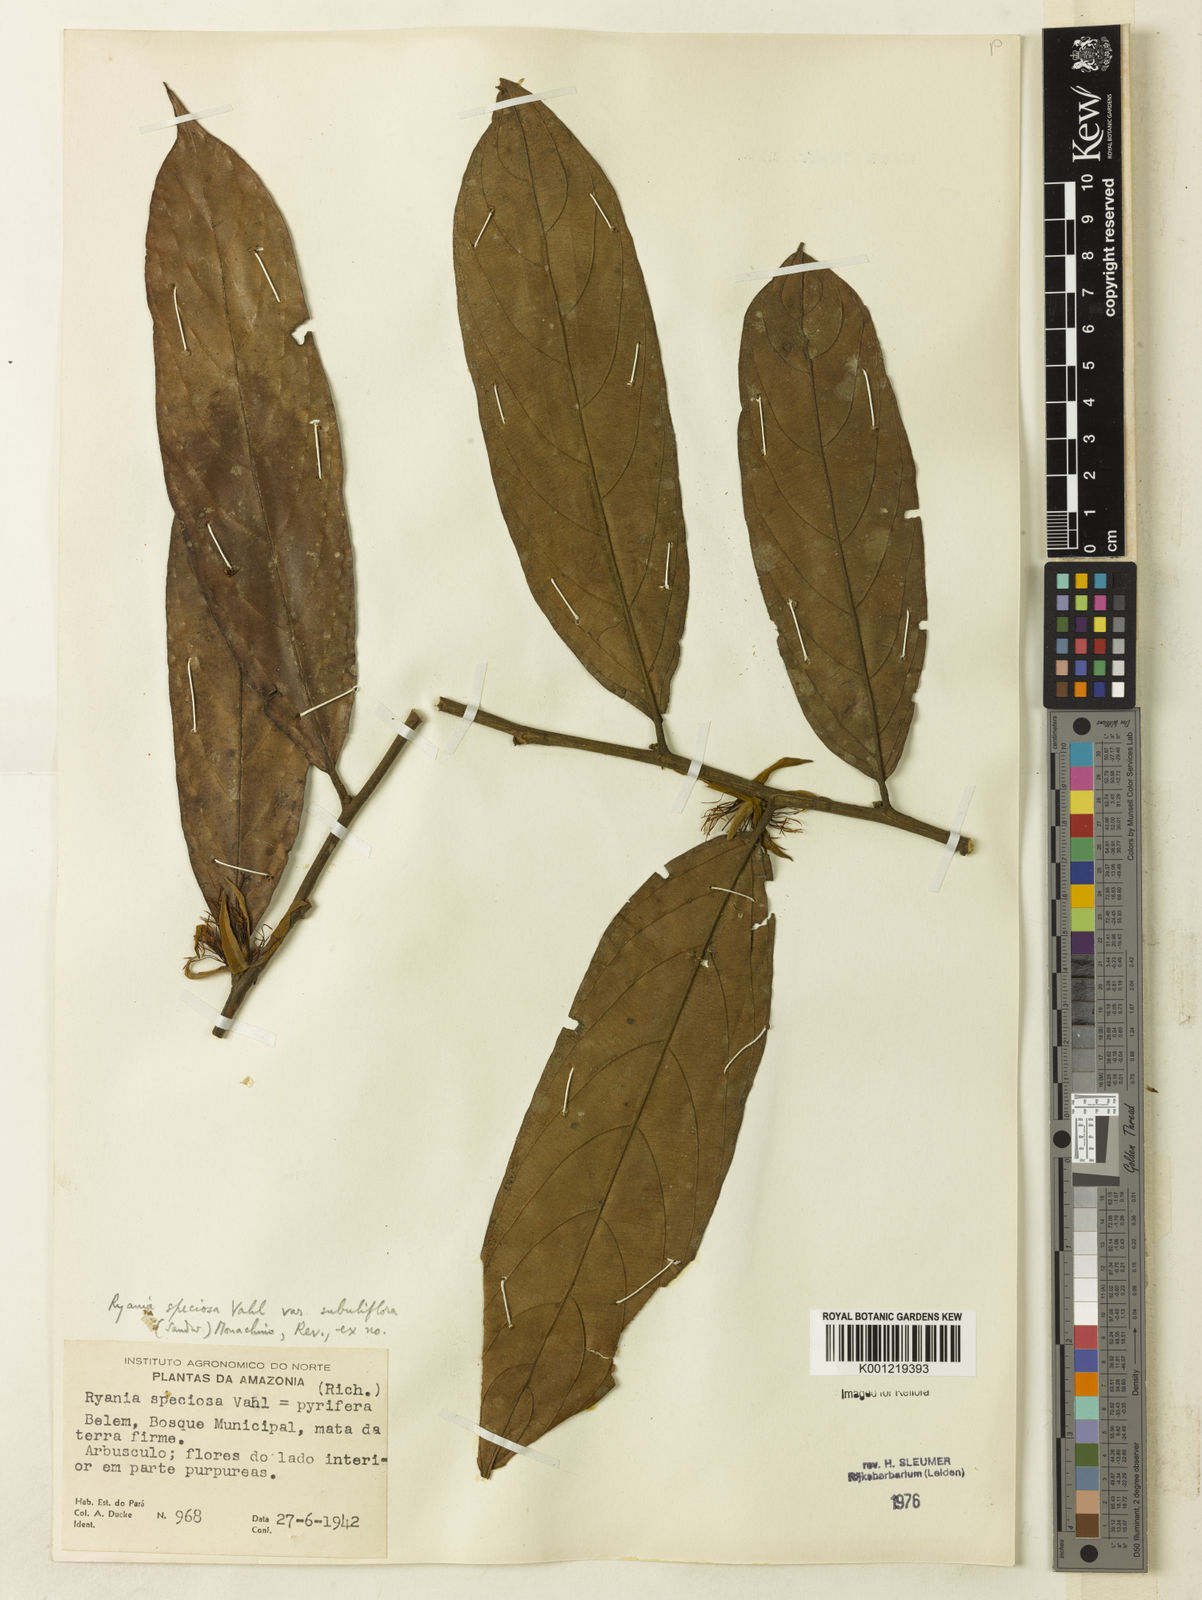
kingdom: Plantae
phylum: Tracheophyta
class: Magnoliopsida
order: Malpighiales
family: Salicaceae
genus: Ryania
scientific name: Ryania speciosa
